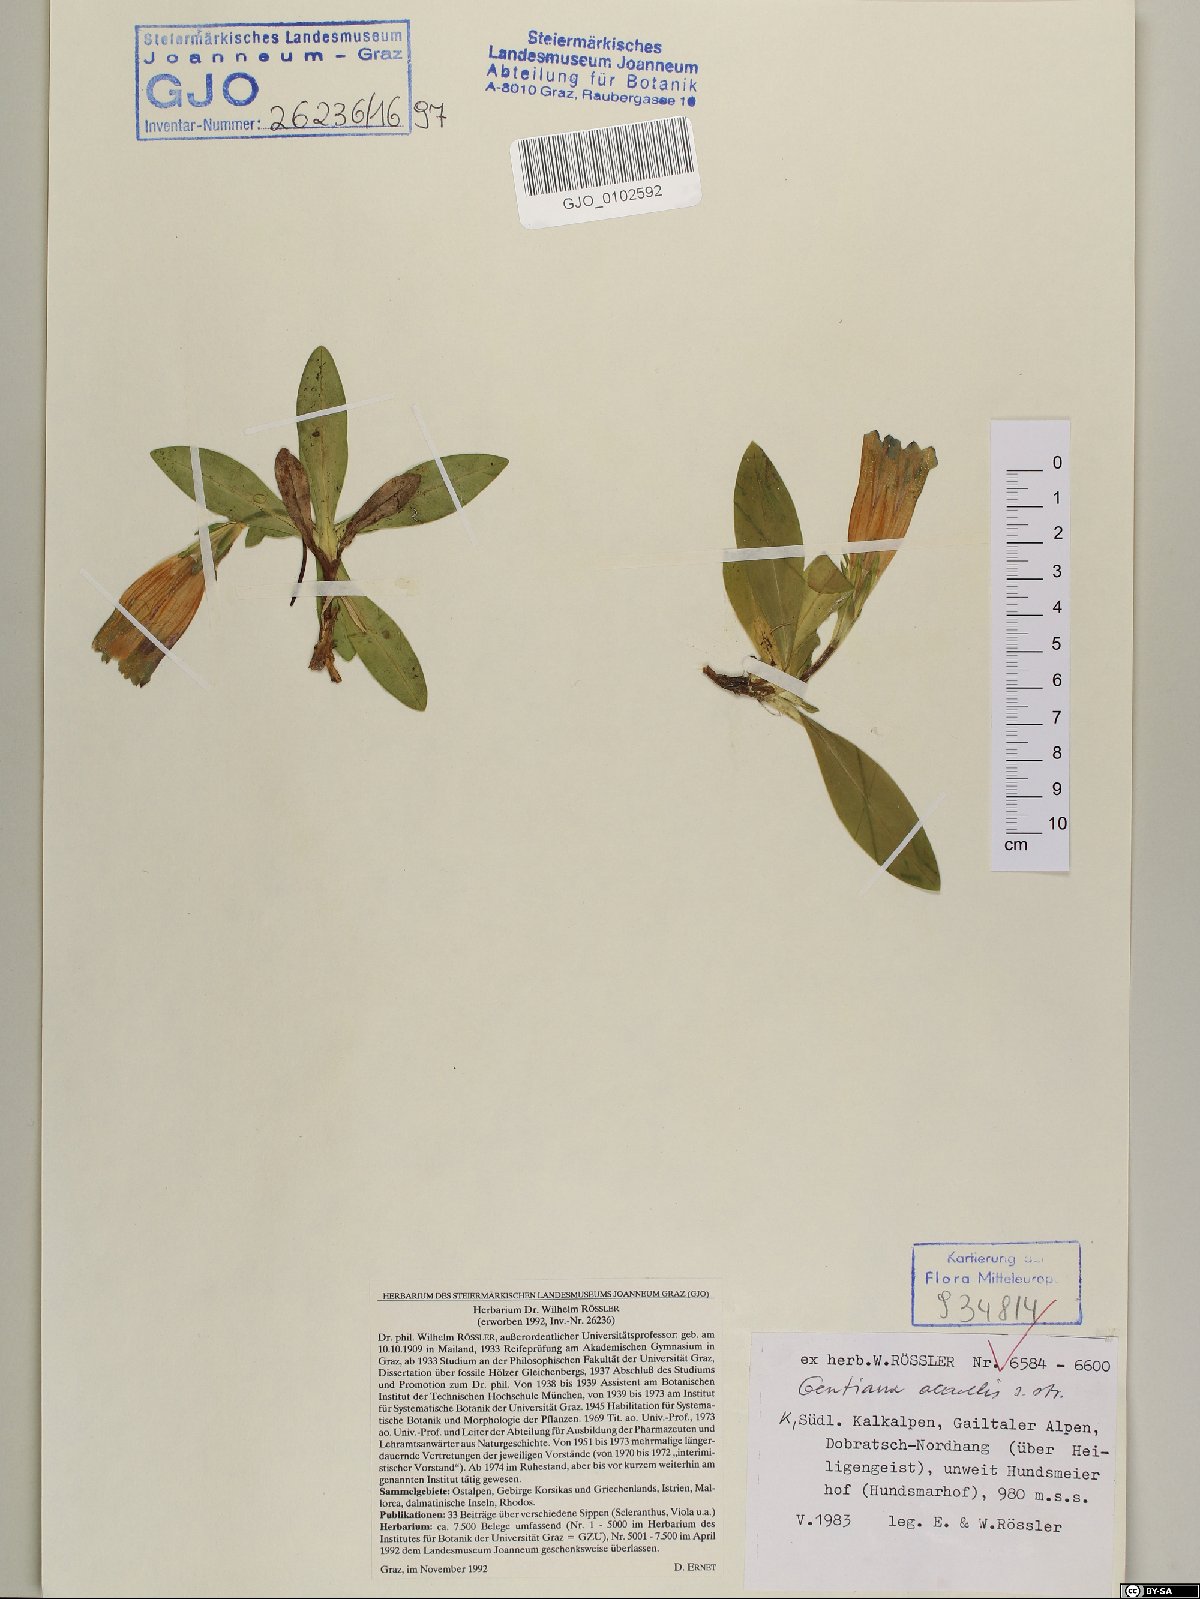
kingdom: Plantae
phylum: Tracheophyta
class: Magnoliopsida
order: Gentianales
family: Gentianaceae
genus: Gentiana
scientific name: Gentiana acaulis
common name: Trumpet gentian
